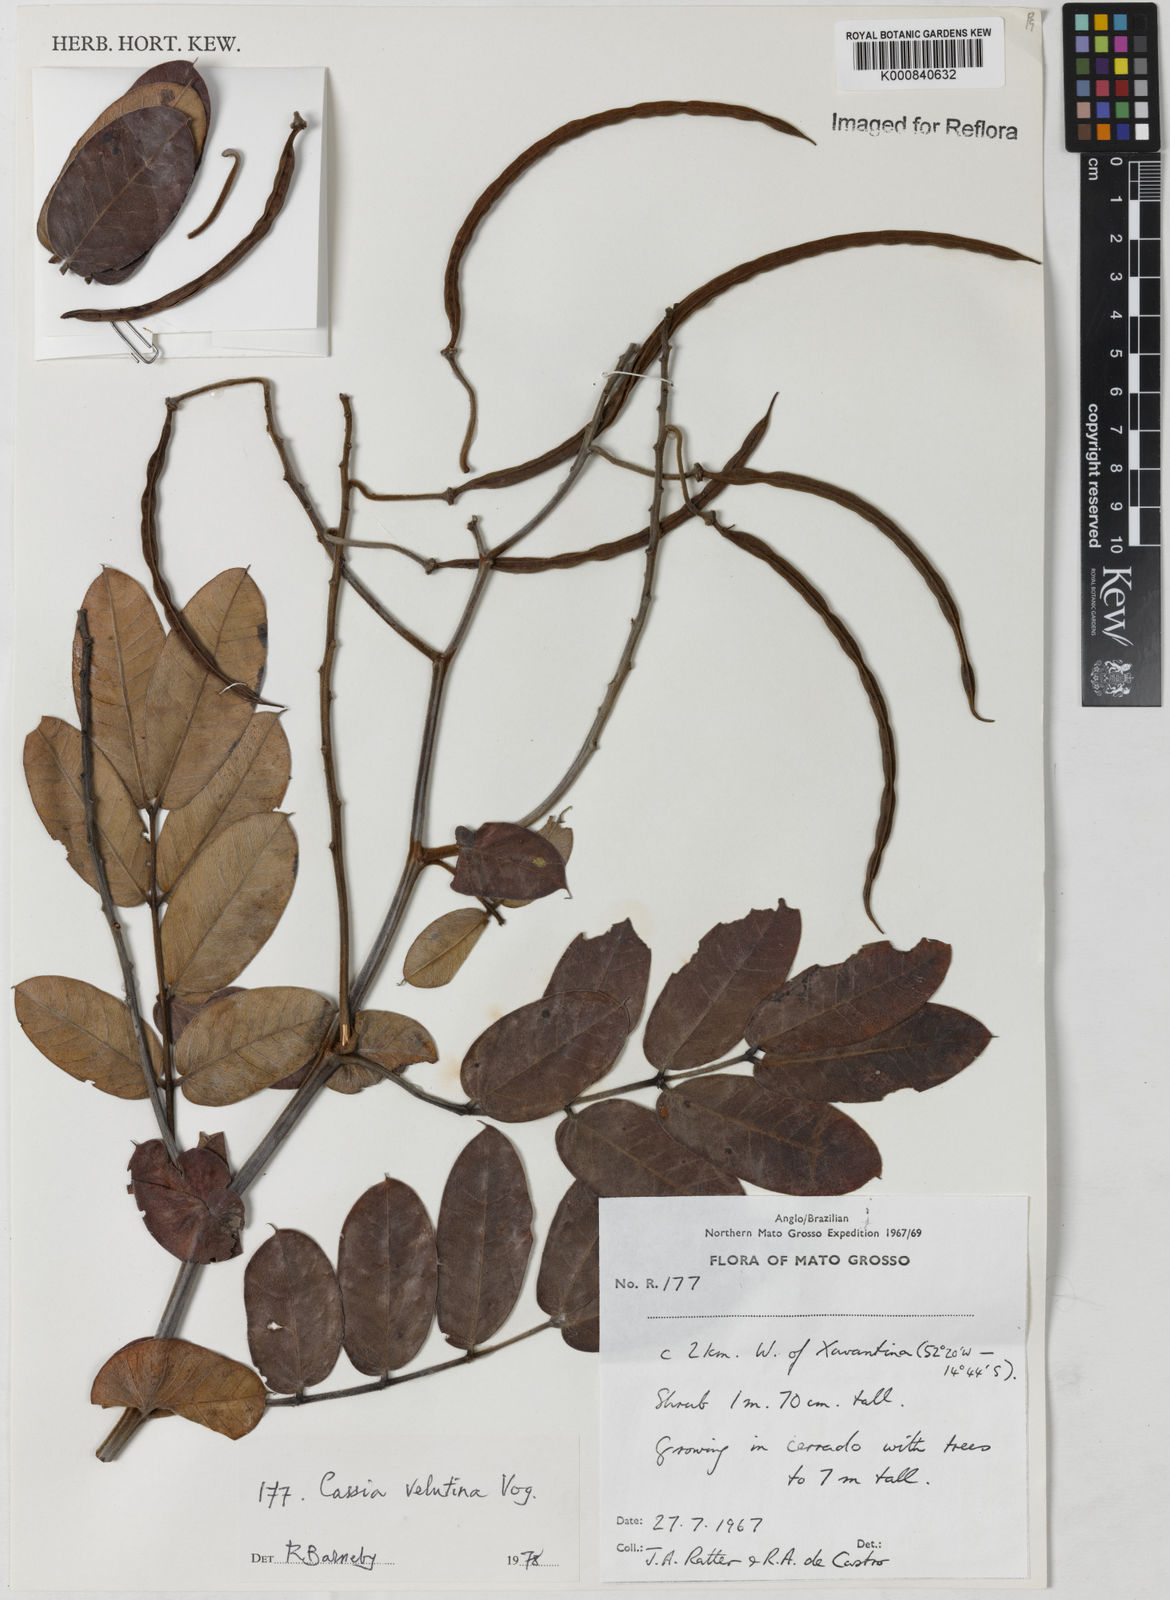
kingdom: Plantae
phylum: Tracheophyta
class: Magnoliopsida
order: Fabales
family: Fabaceae
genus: Senna
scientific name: Senna velutina
